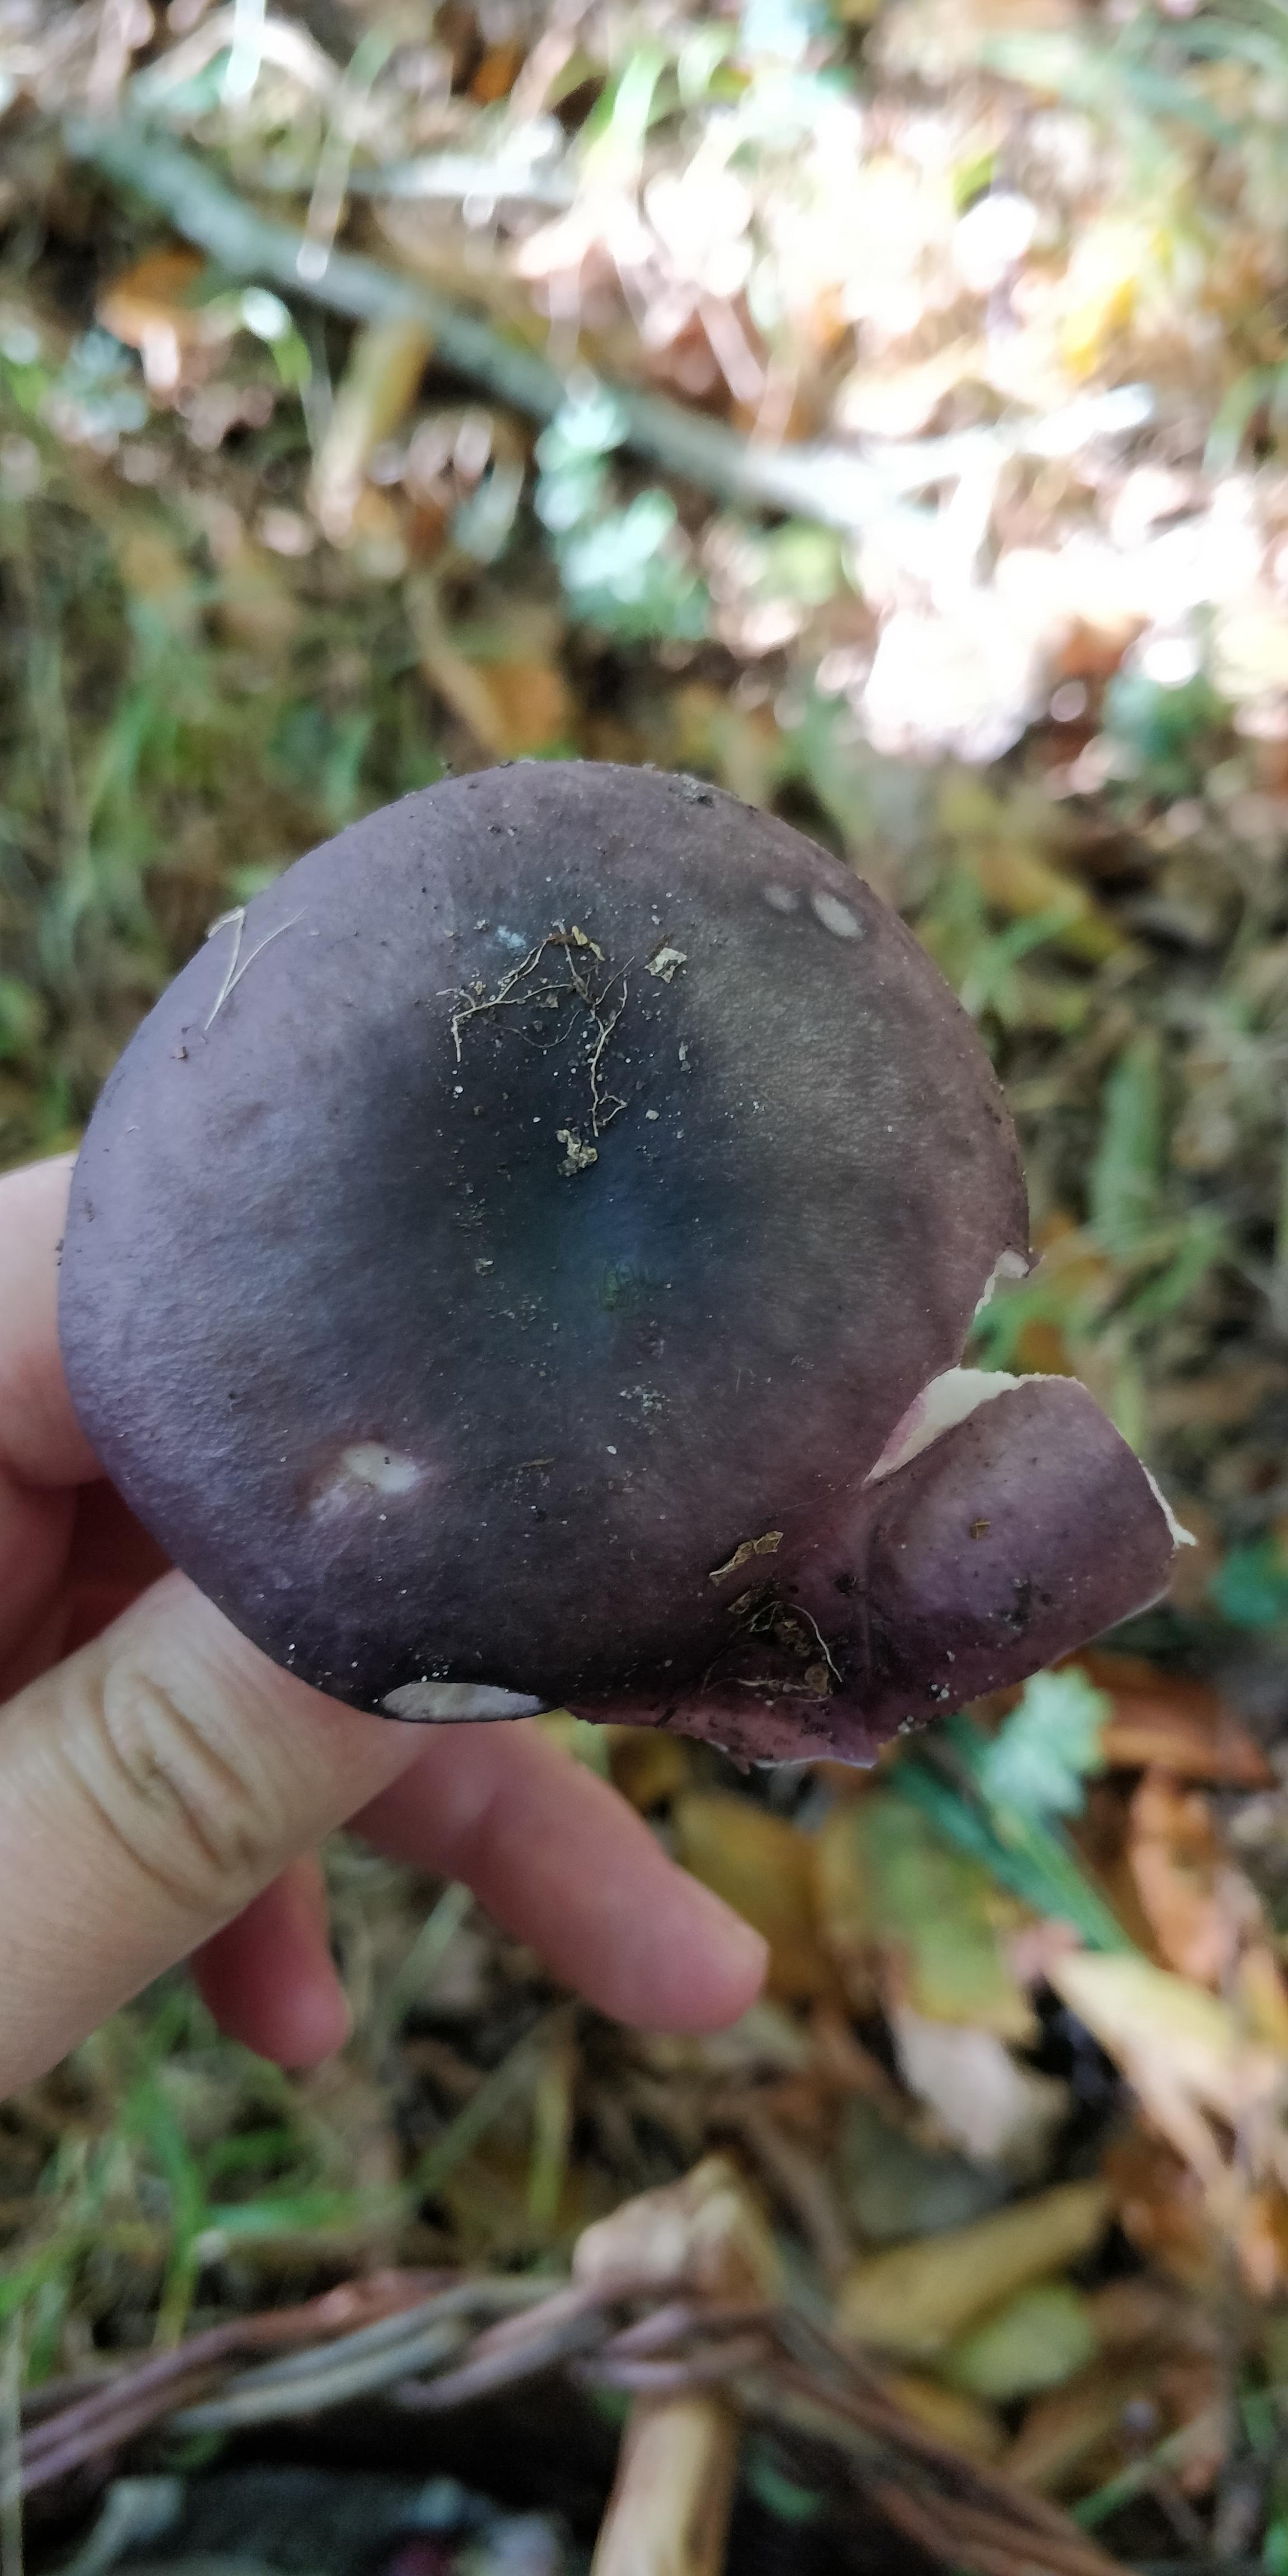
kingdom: Fungi
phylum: Basidiomycota
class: Agaricomycetes
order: Russulales
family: Russulaceae
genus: Russula
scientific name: Russula
